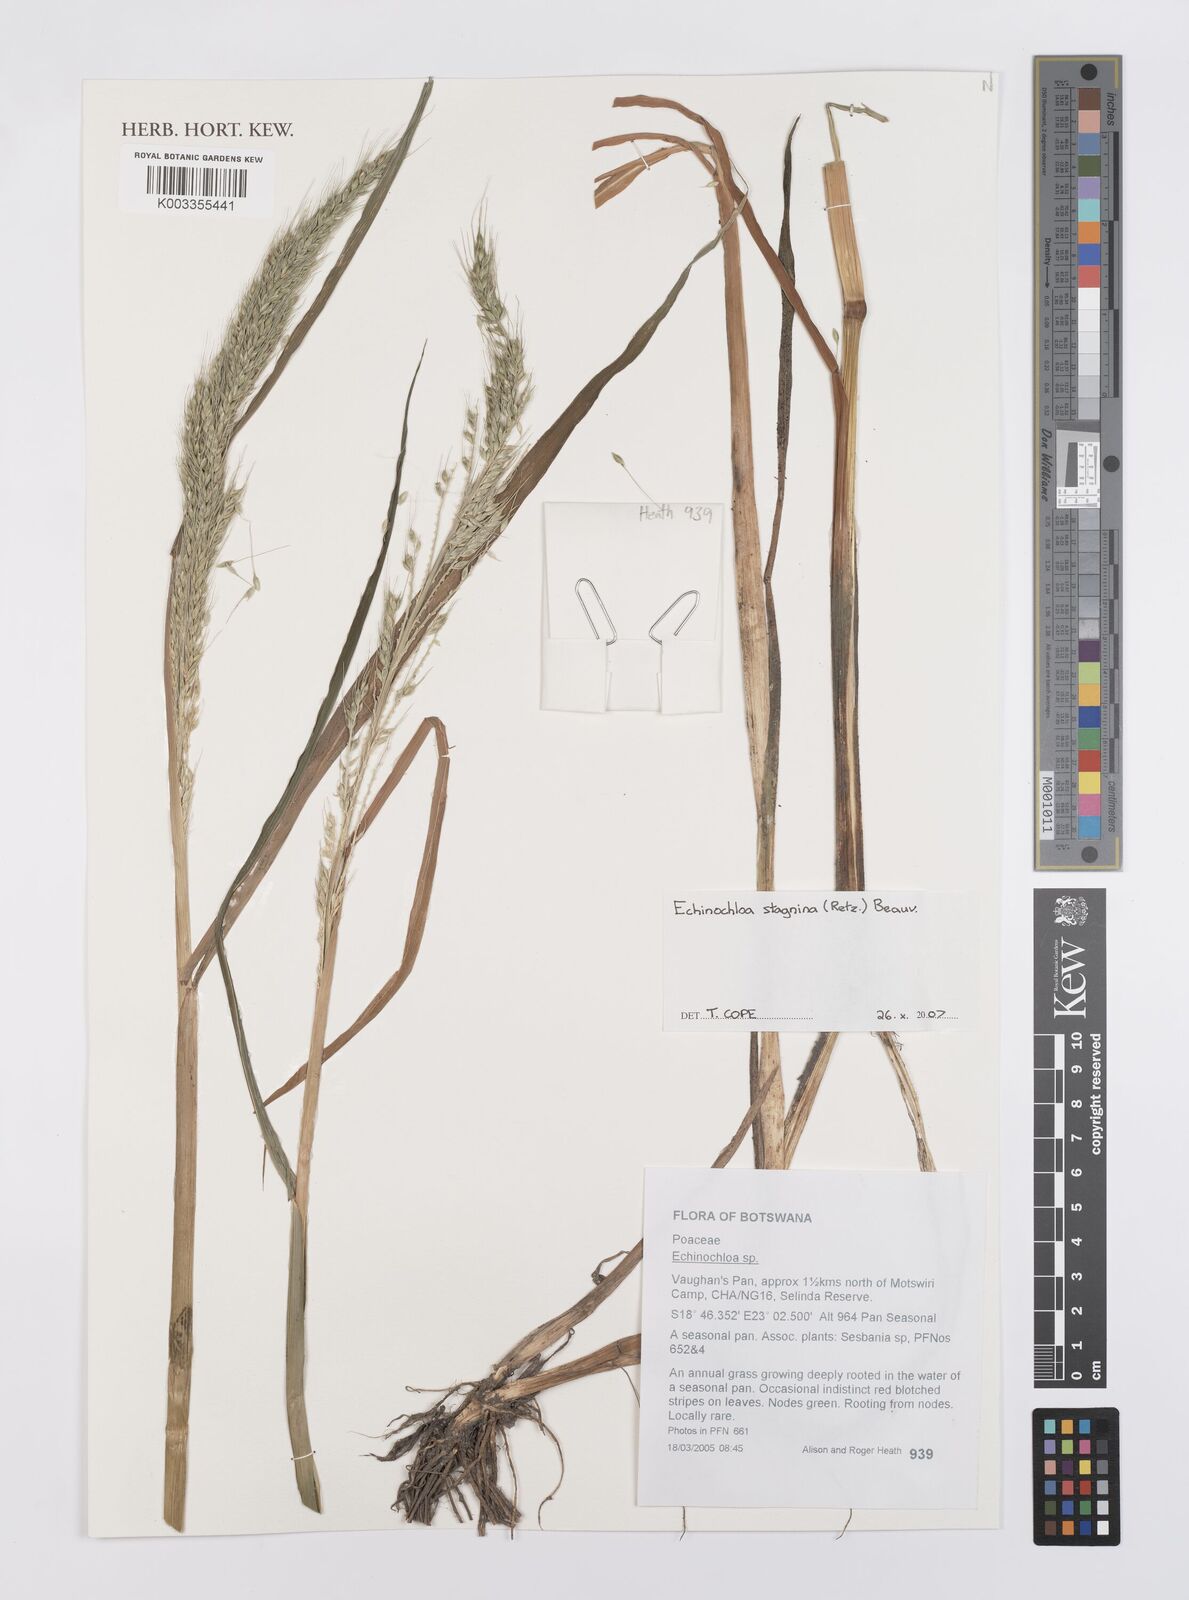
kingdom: Plantae
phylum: Tracheophyta
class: Liliopsida
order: Poales
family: Poaceae
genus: Echinochloa
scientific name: Echinochloa stagnina
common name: Burgu grass
